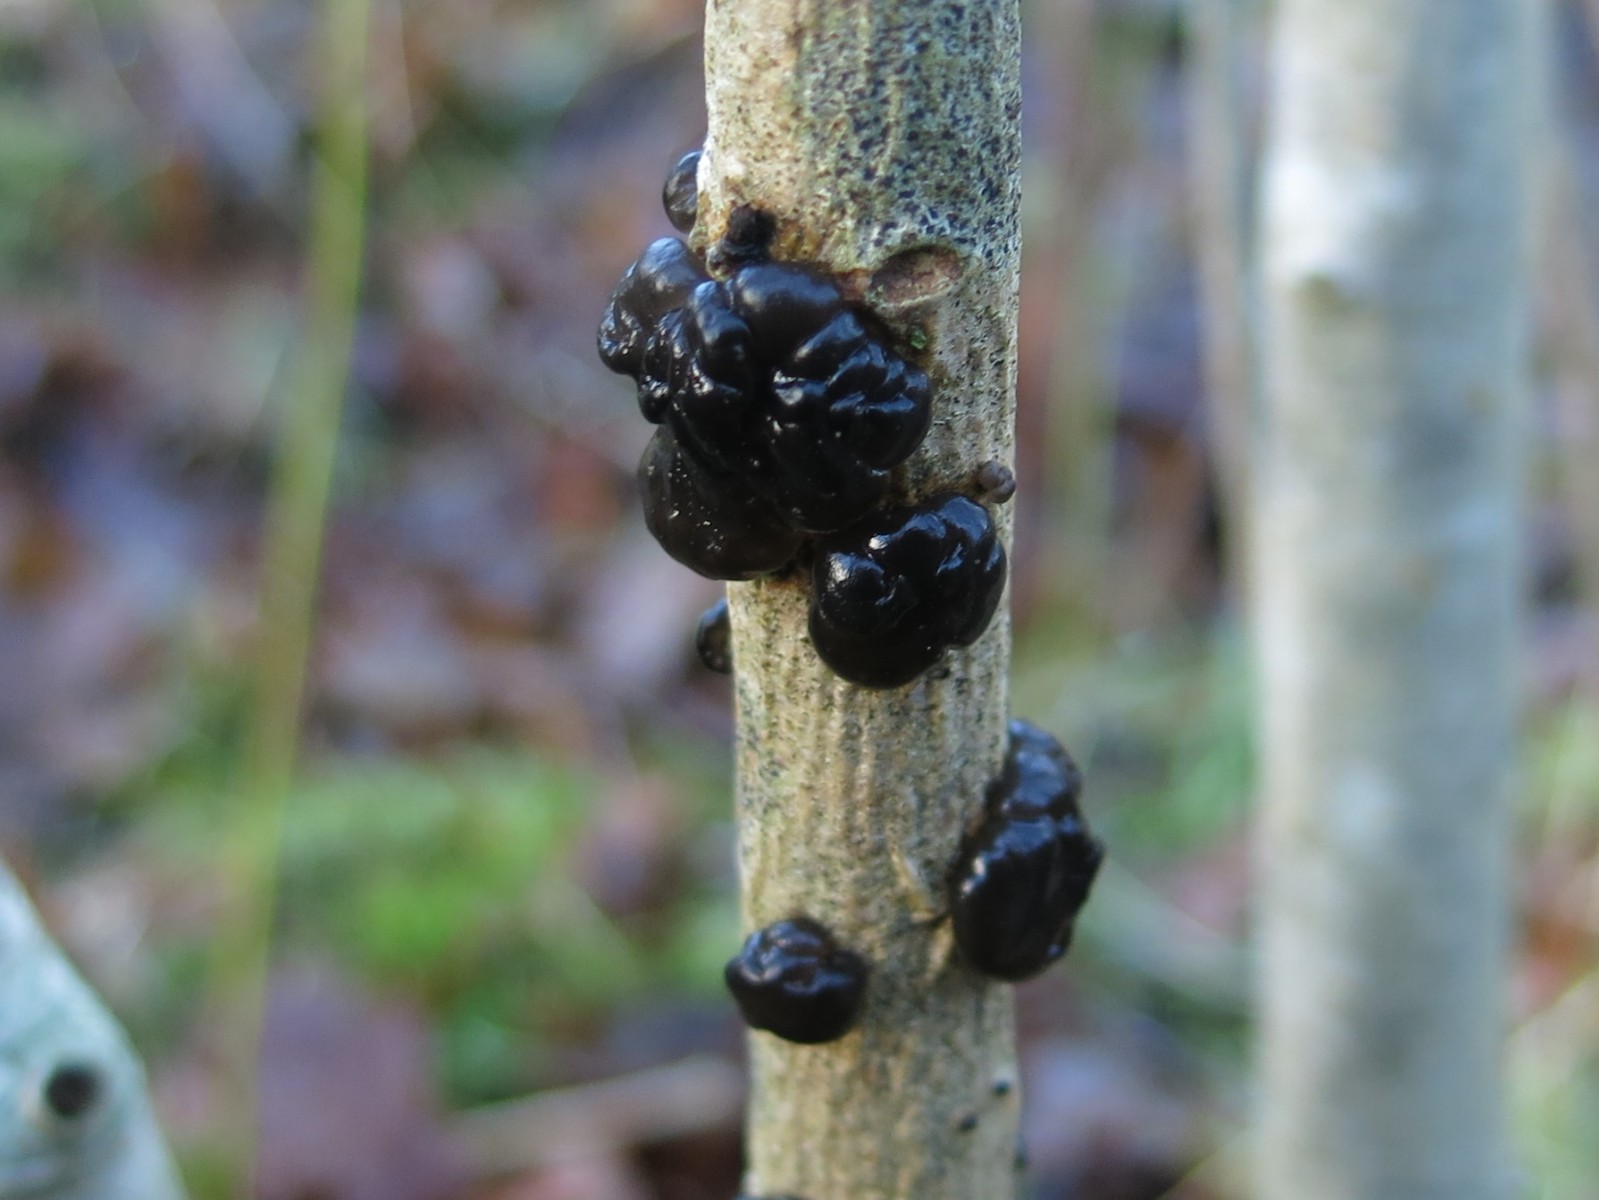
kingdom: Fungi
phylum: Basidiomycota
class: Agaricomycetes
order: Auriculariales
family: Auriculariaceae
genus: Exidia
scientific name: Exidia nigricans
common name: almindelig bævretop
